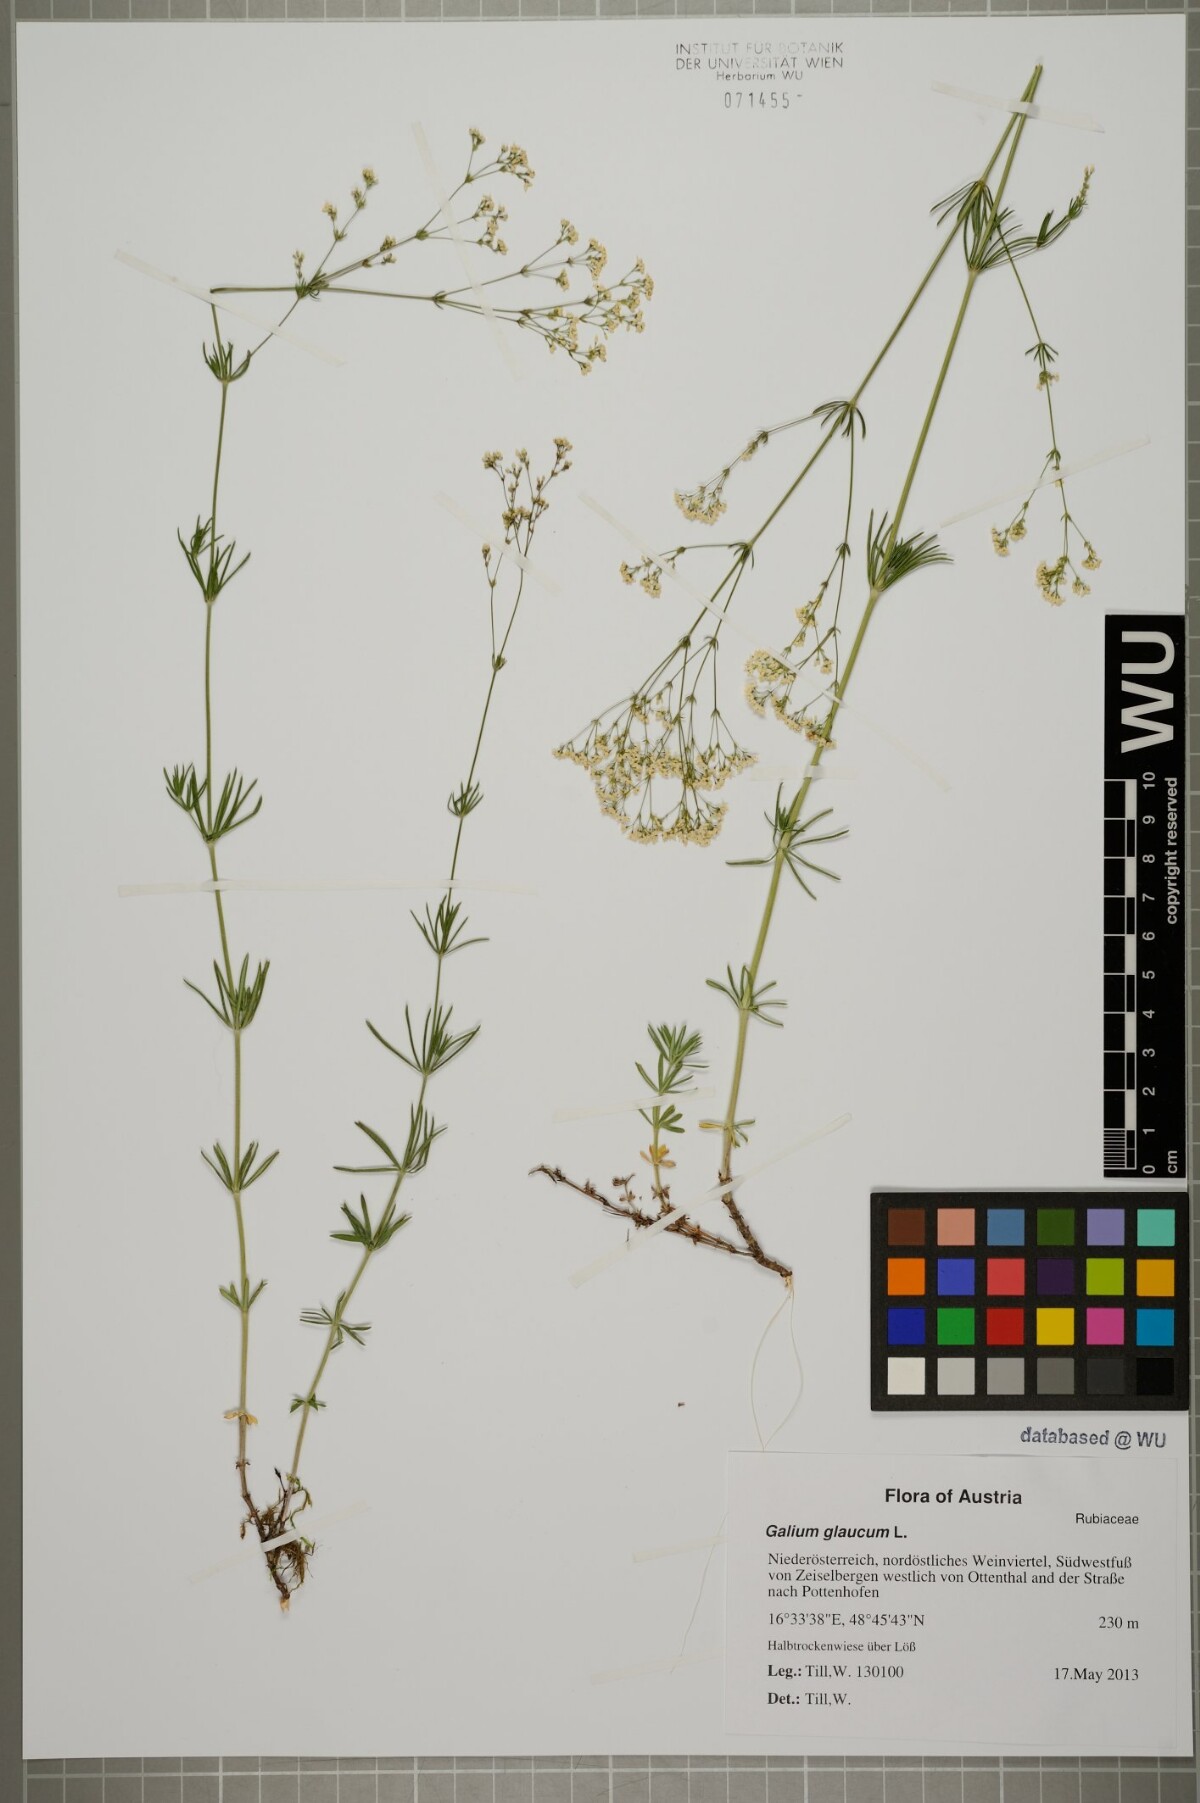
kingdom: Plantae
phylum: Tracheophyta
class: Magnoliopsida
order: Gentianales
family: Rubiaceae
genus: Galium
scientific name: Galium glaucum
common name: Waxy bedstraw
